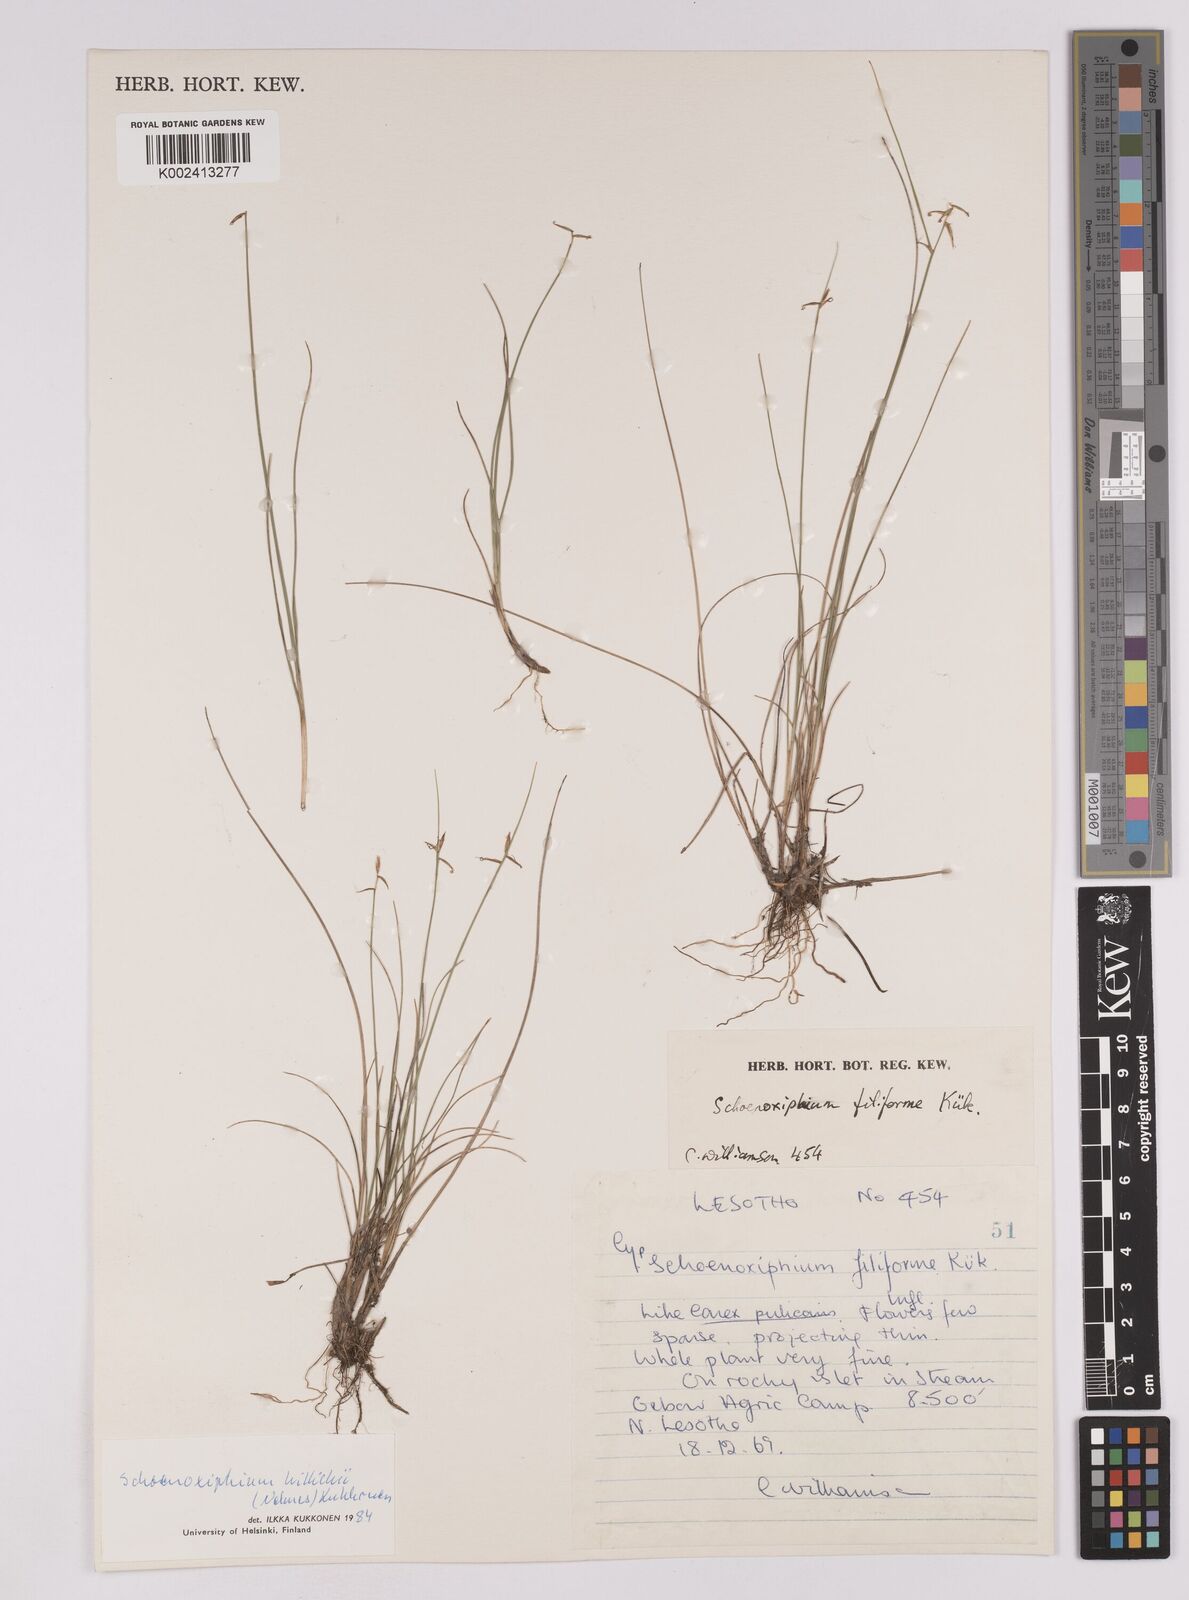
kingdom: Plantae
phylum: Tracheophyta
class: Liliopsida
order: Poales
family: Cyperaceae
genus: Carex
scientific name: Carex
